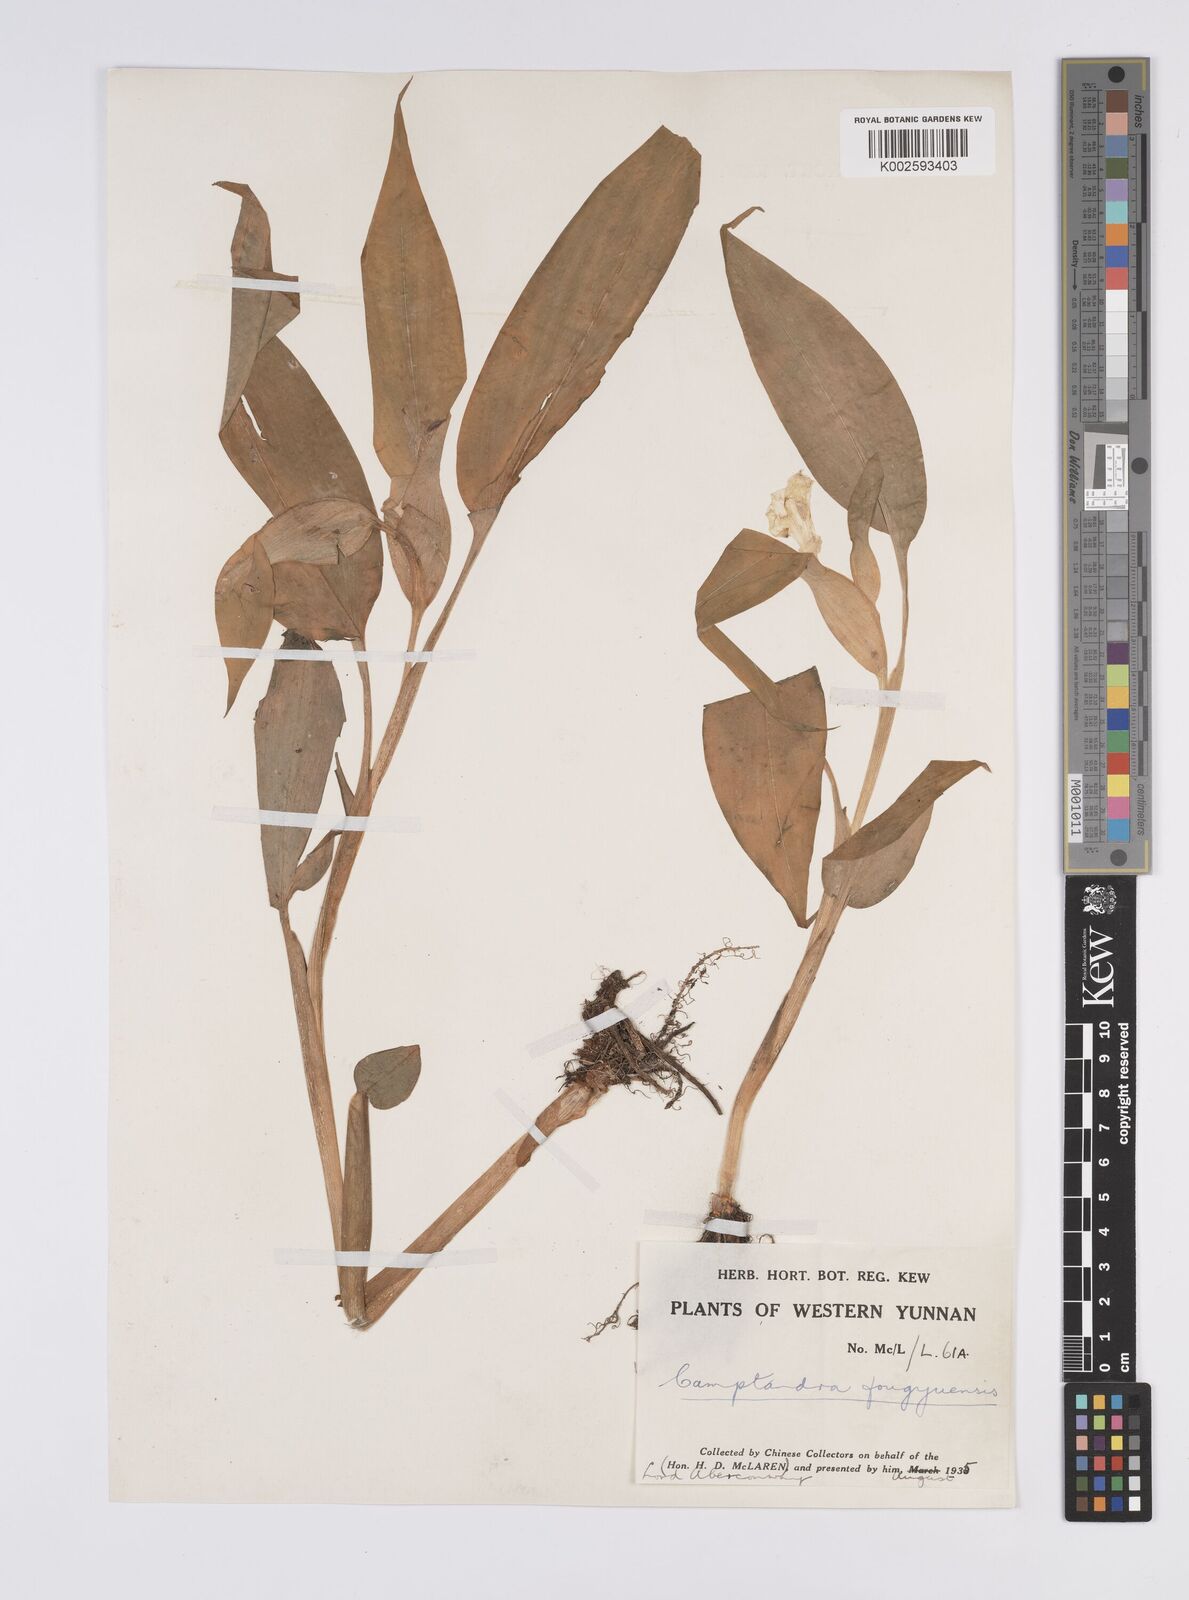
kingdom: Plantae
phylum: Tracheophyta
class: Liliopsida
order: Zingiberales
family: Zingiberaceae
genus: Pyrgophyllum
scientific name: Pyrgophyllum yunnanense
